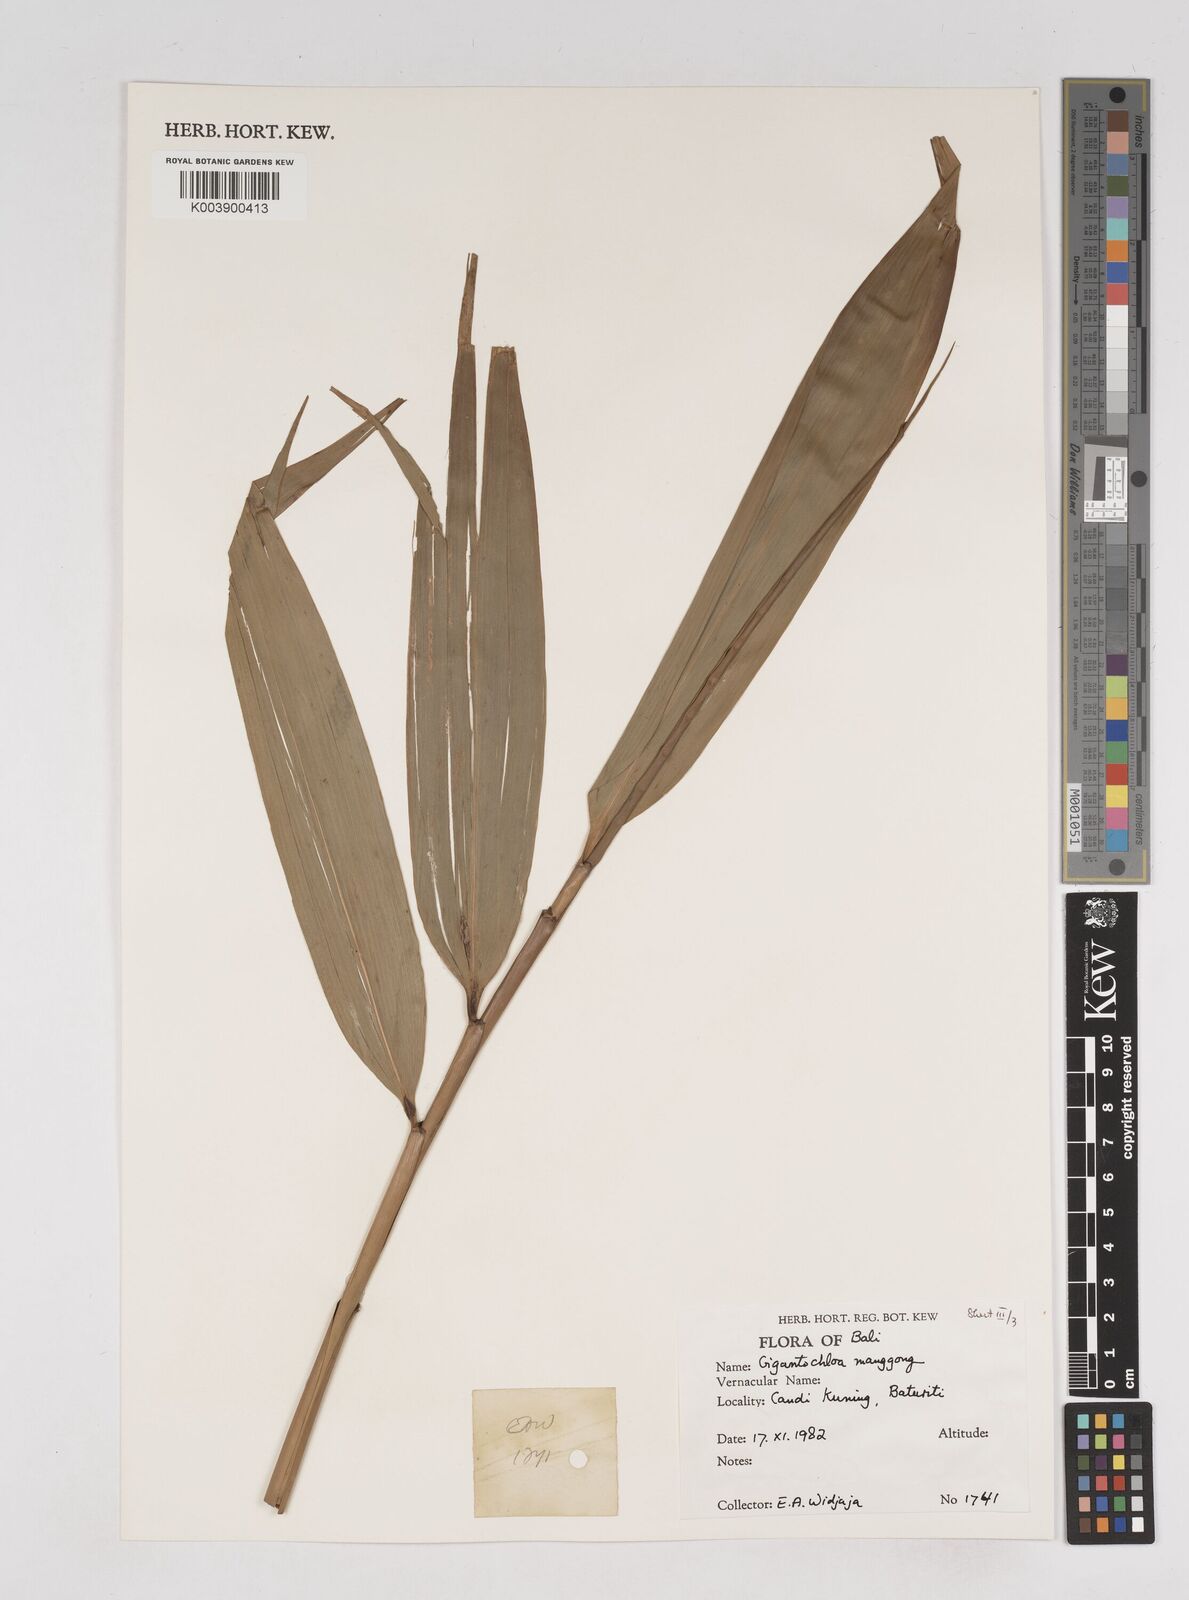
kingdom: Plantae
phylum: Tracheophyta
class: Liliopsida
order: Poales
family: Poaceae
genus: Gigantochloa
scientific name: Gigantochloa manggong
